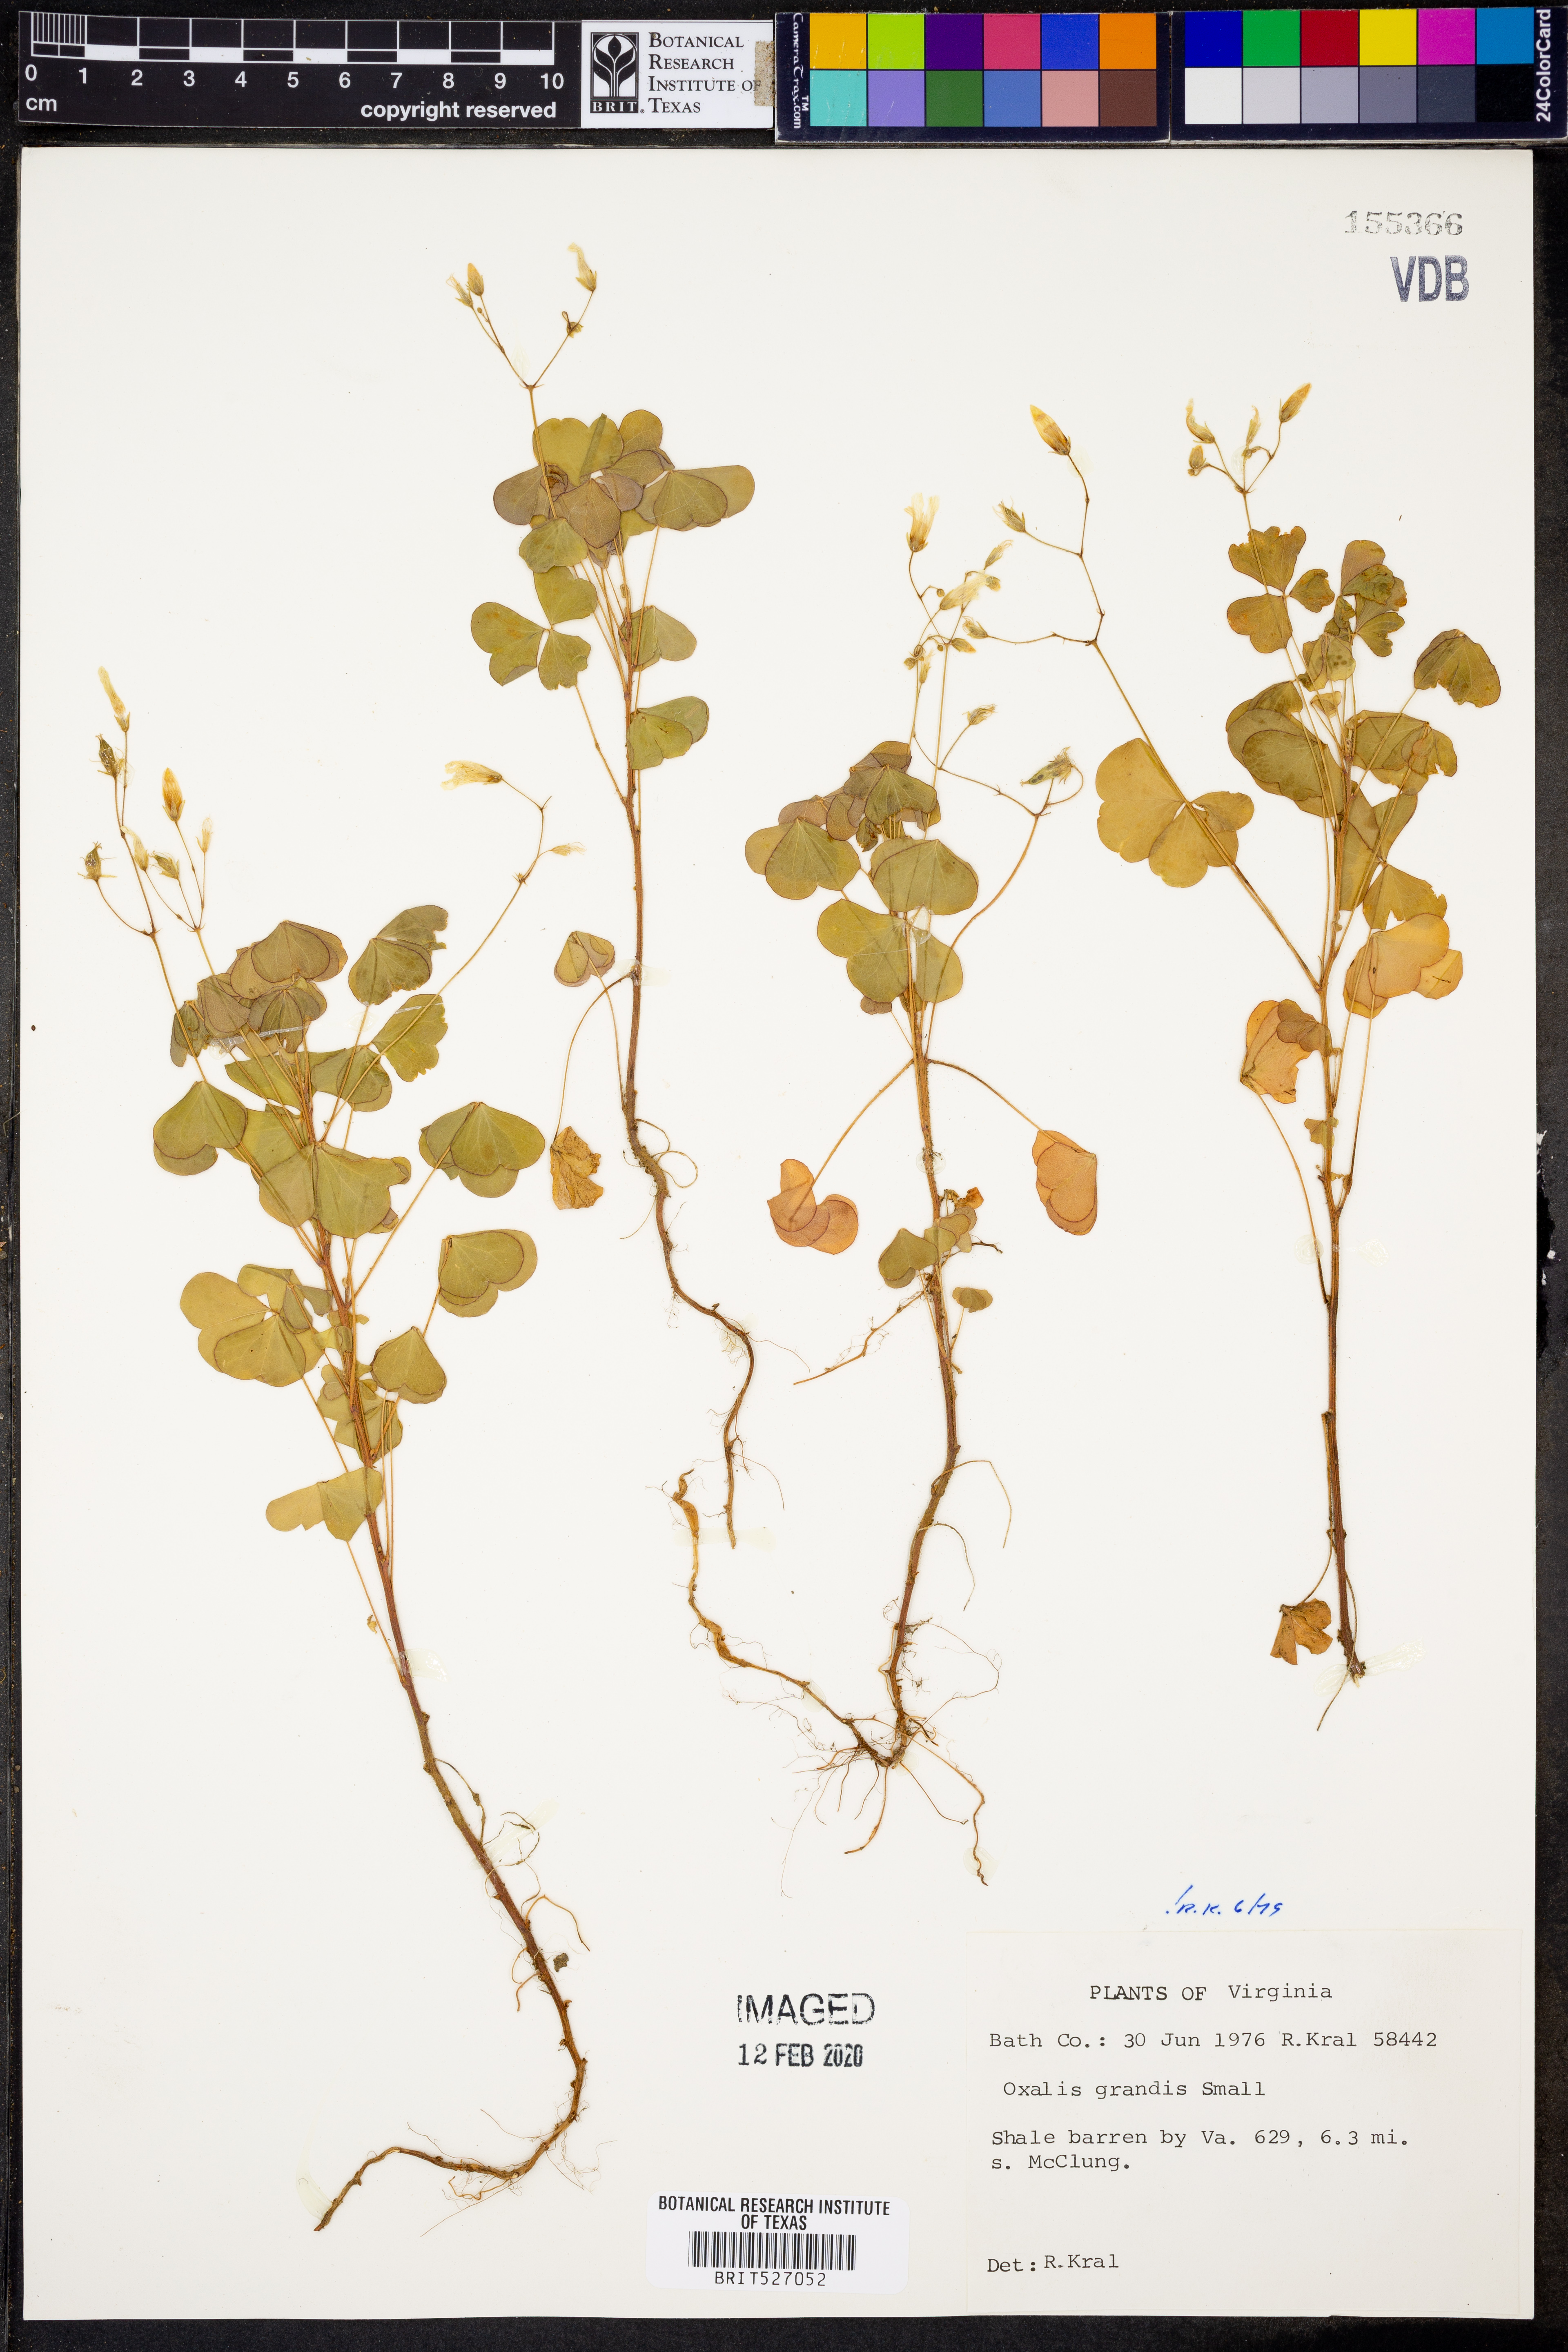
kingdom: Plantae
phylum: Tracheophyta
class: Magnoliopsida
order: Oxalidales
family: Oxalidaceae
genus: Oxalis
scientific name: Oxalis grandis
